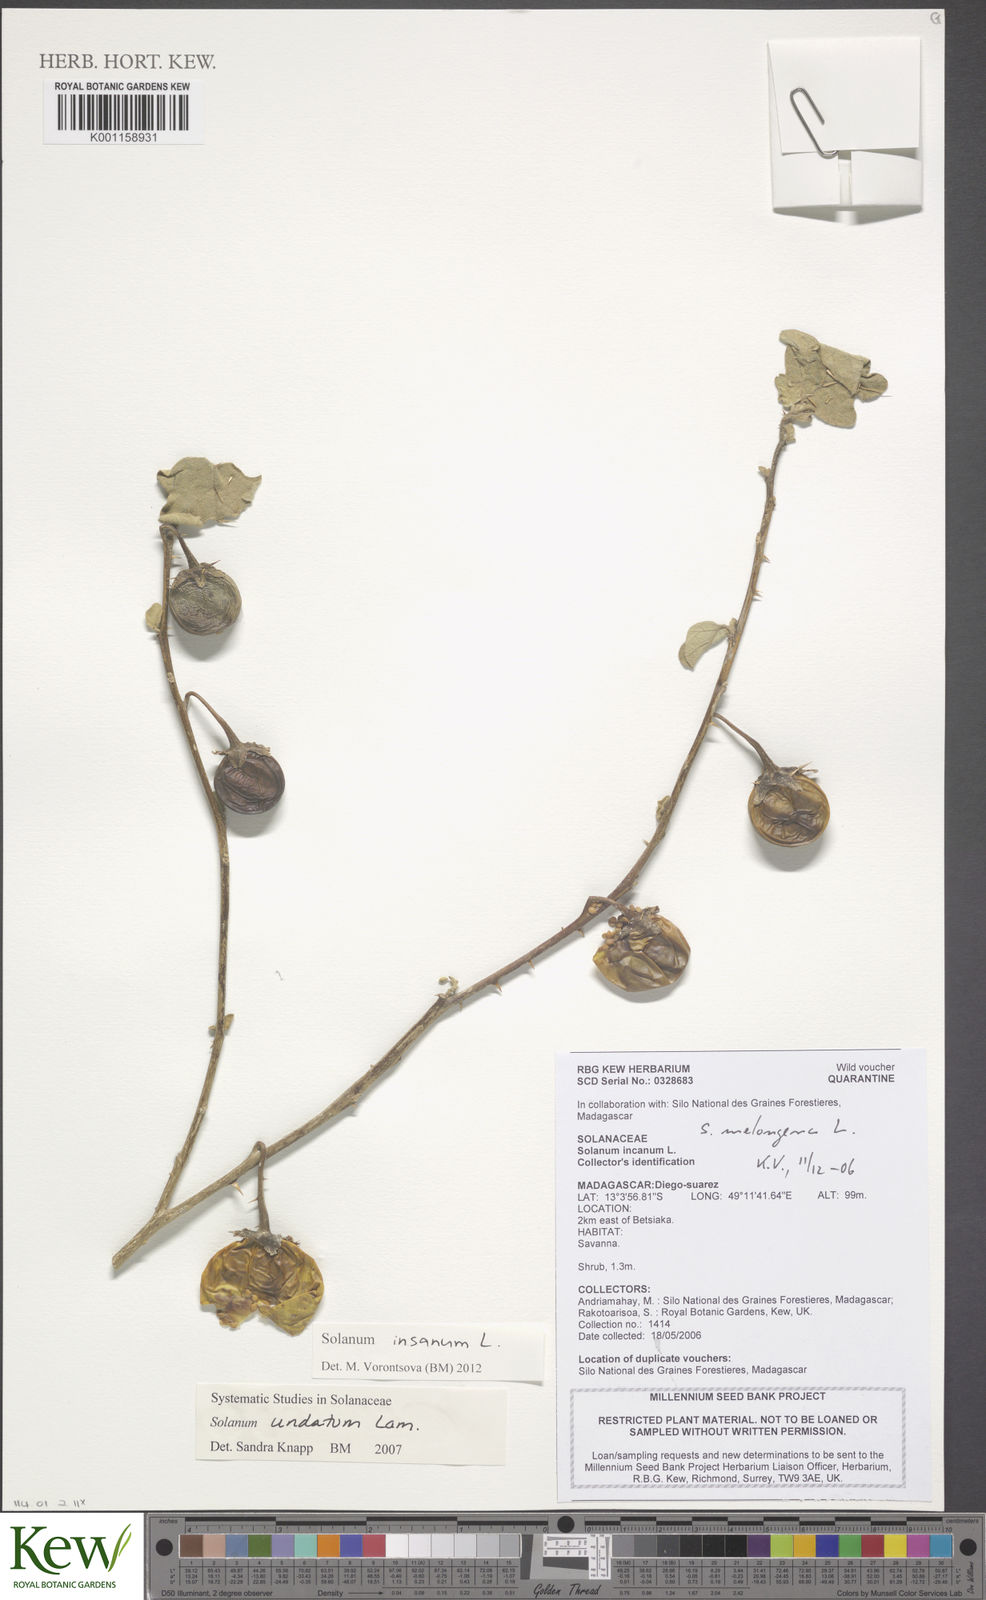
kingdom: Plantae
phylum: Tracheophyta
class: Magnoliopsida
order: Solanales
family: Solanaceae
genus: Solanum
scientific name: Solanum insanum
